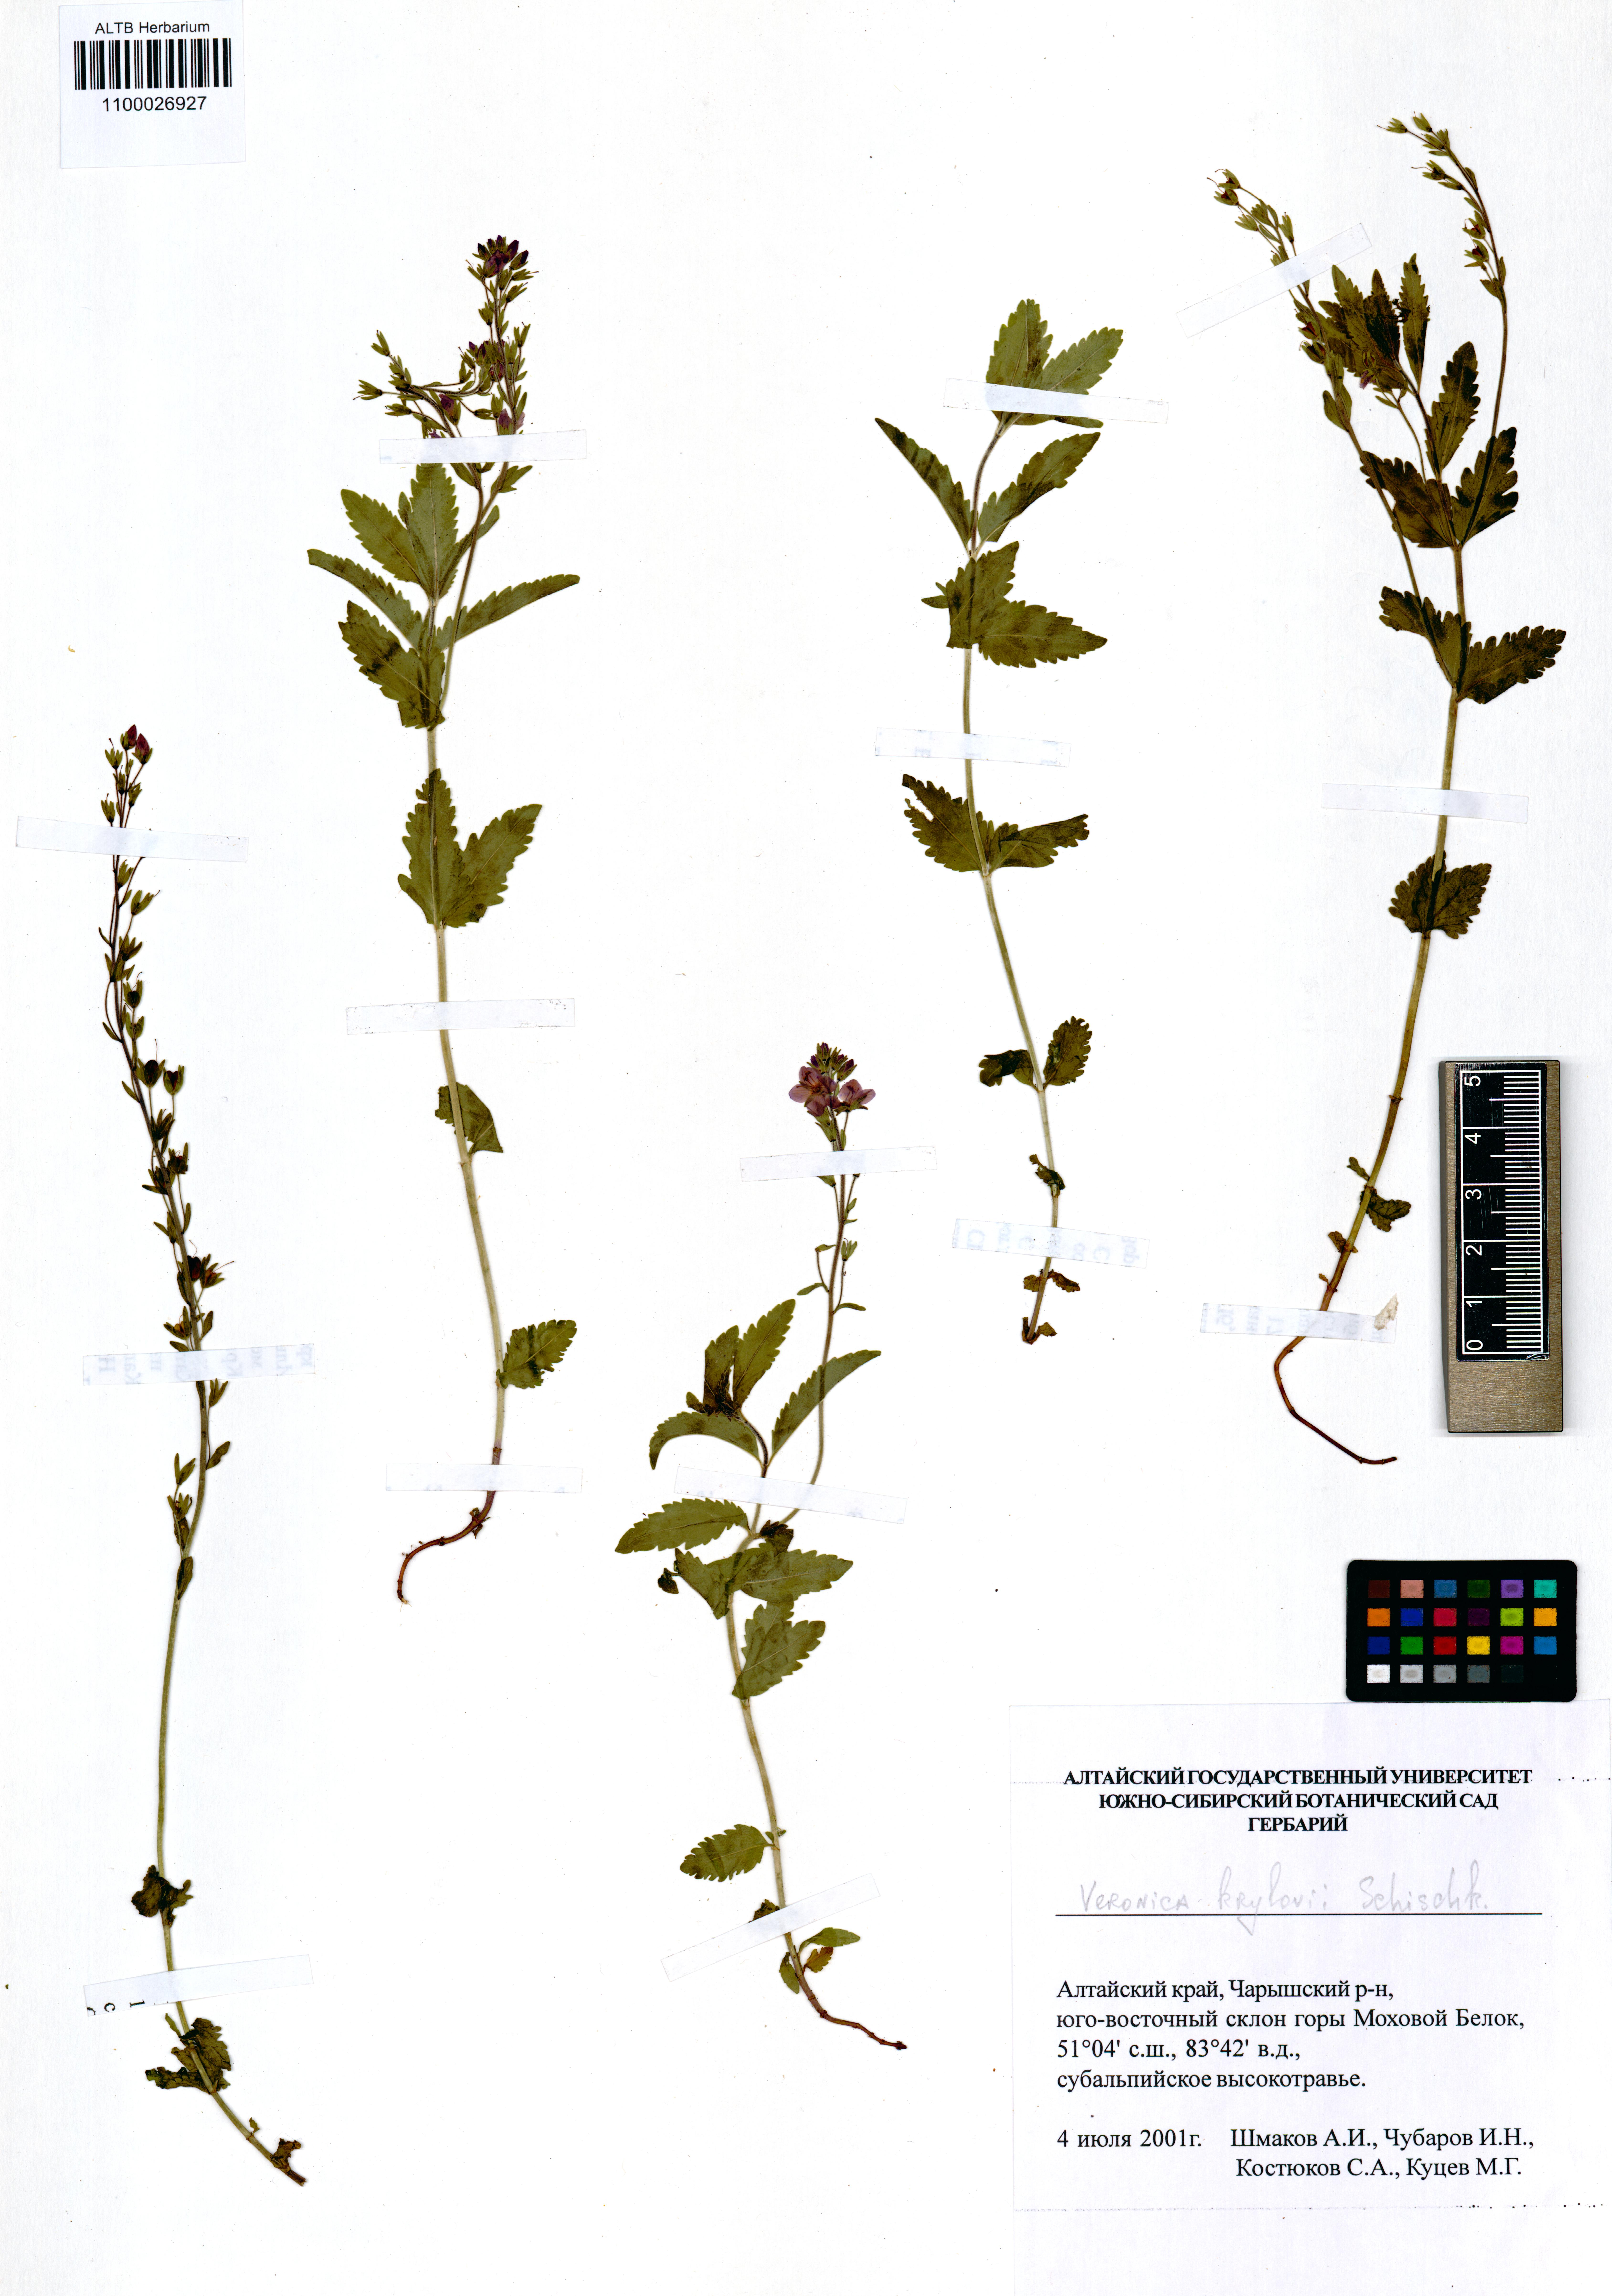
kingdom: Plantae
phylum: Tracheophyta
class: Magnoliopsida
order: Lamiales
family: Plantaginaceae
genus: Veronica
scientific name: Veronica krylovii
